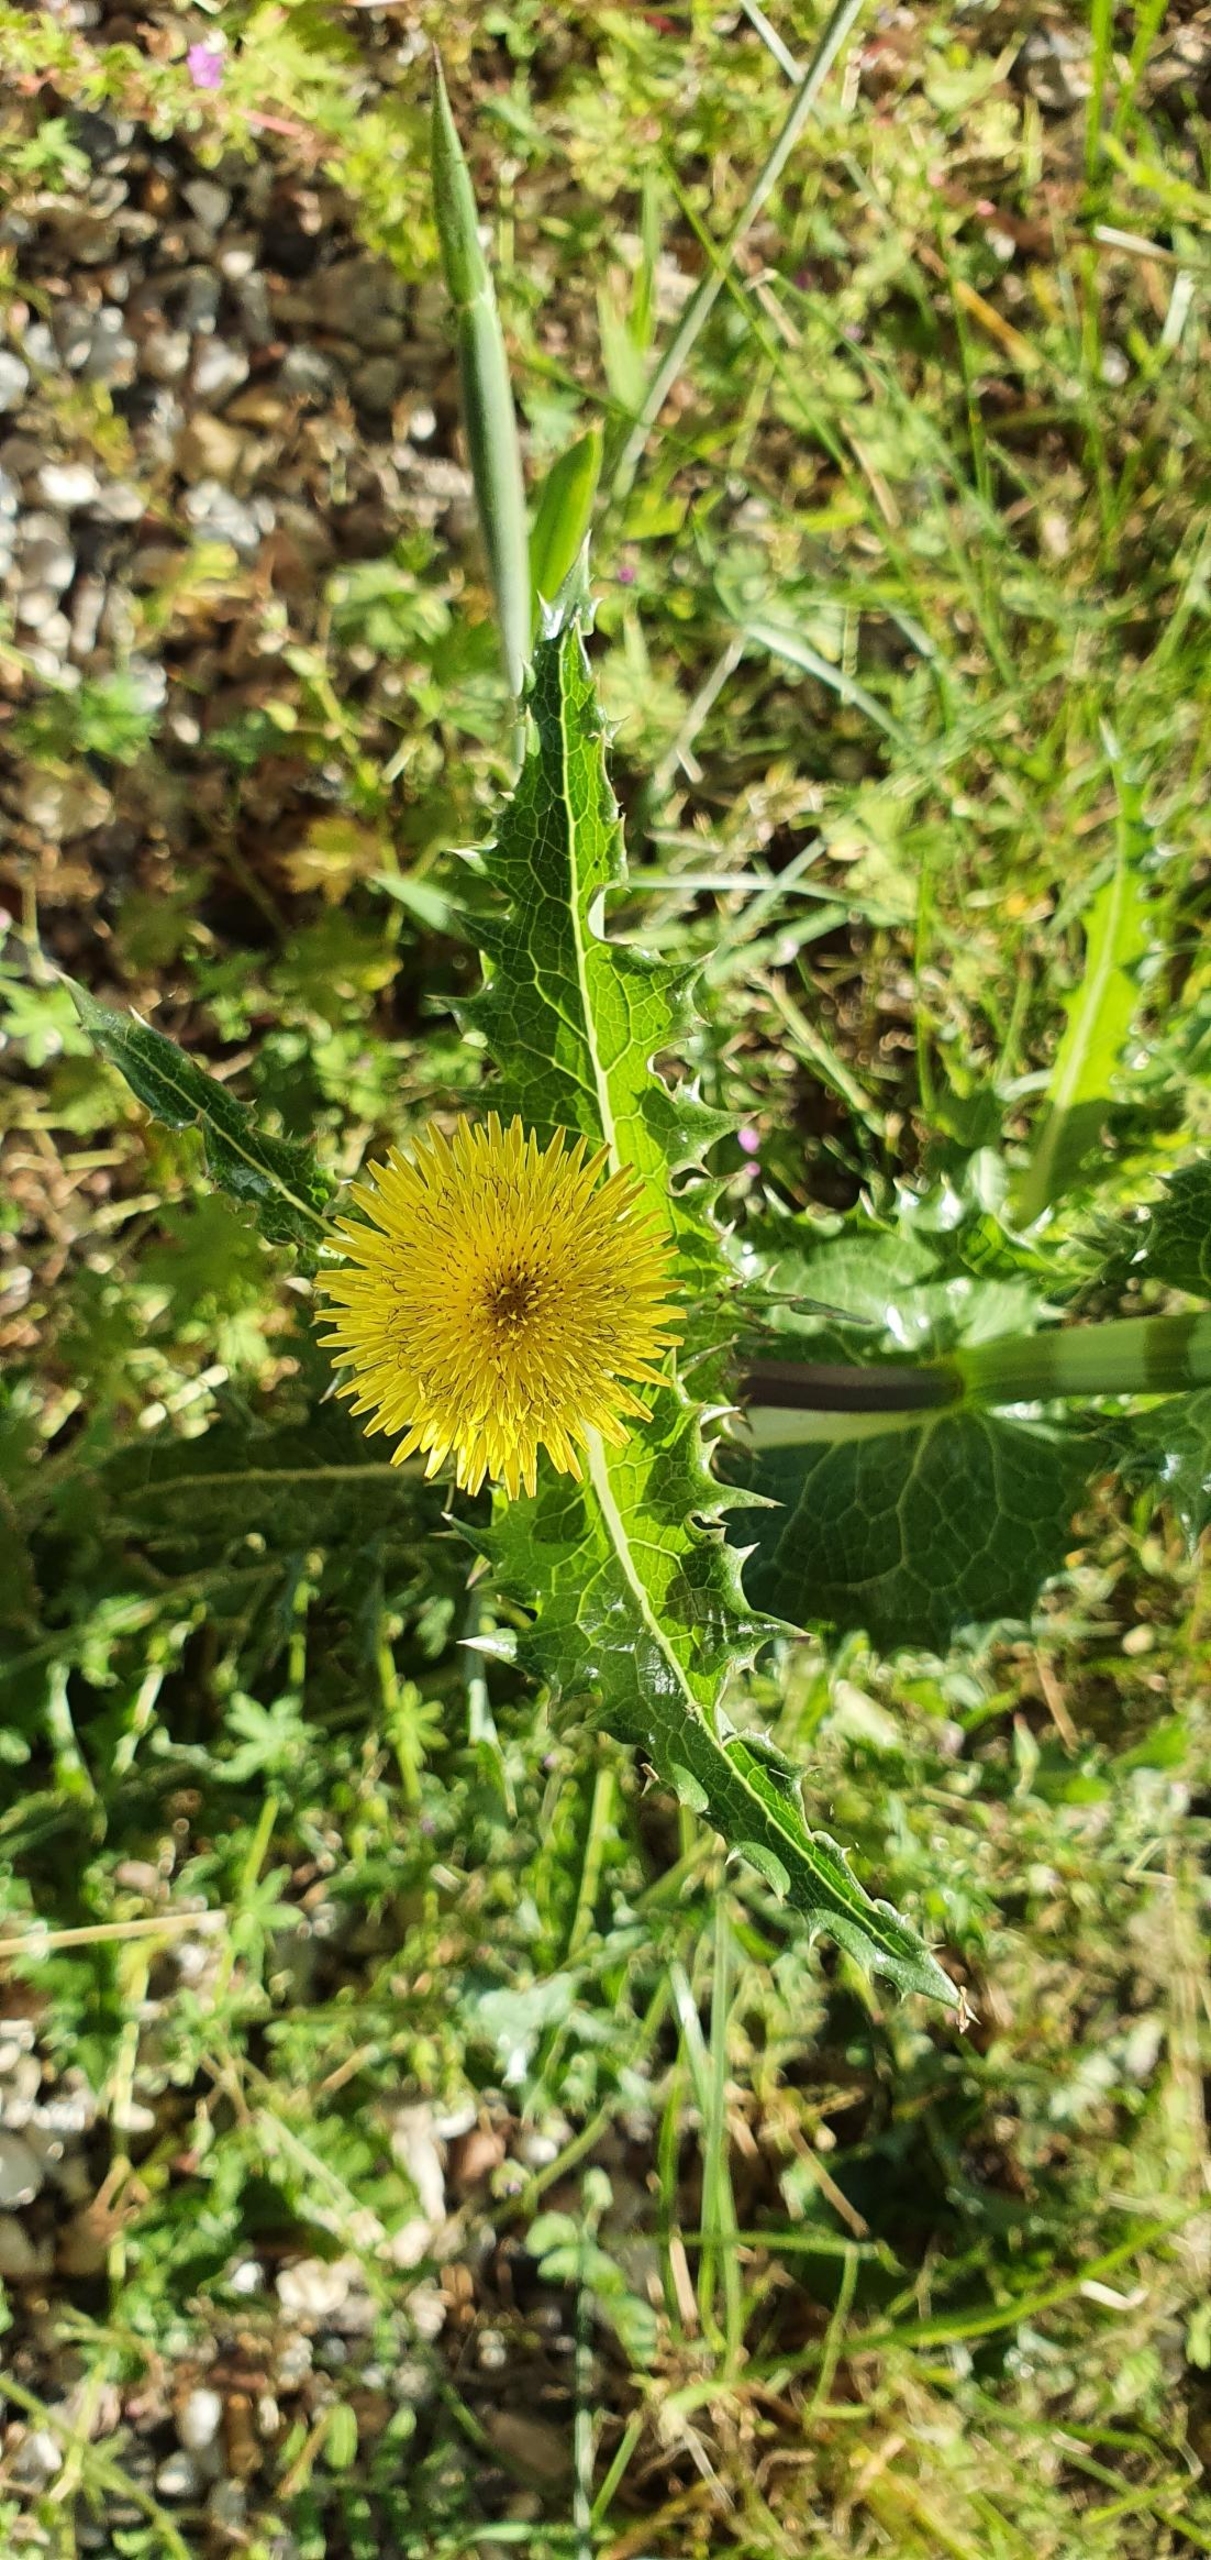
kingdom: Plantae
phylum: Tracheophyta
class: Magnoliopsida
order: Asterales
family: Asteraceae
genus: Sonchus
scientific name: Sonchus asper
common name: Ru svinemælk
